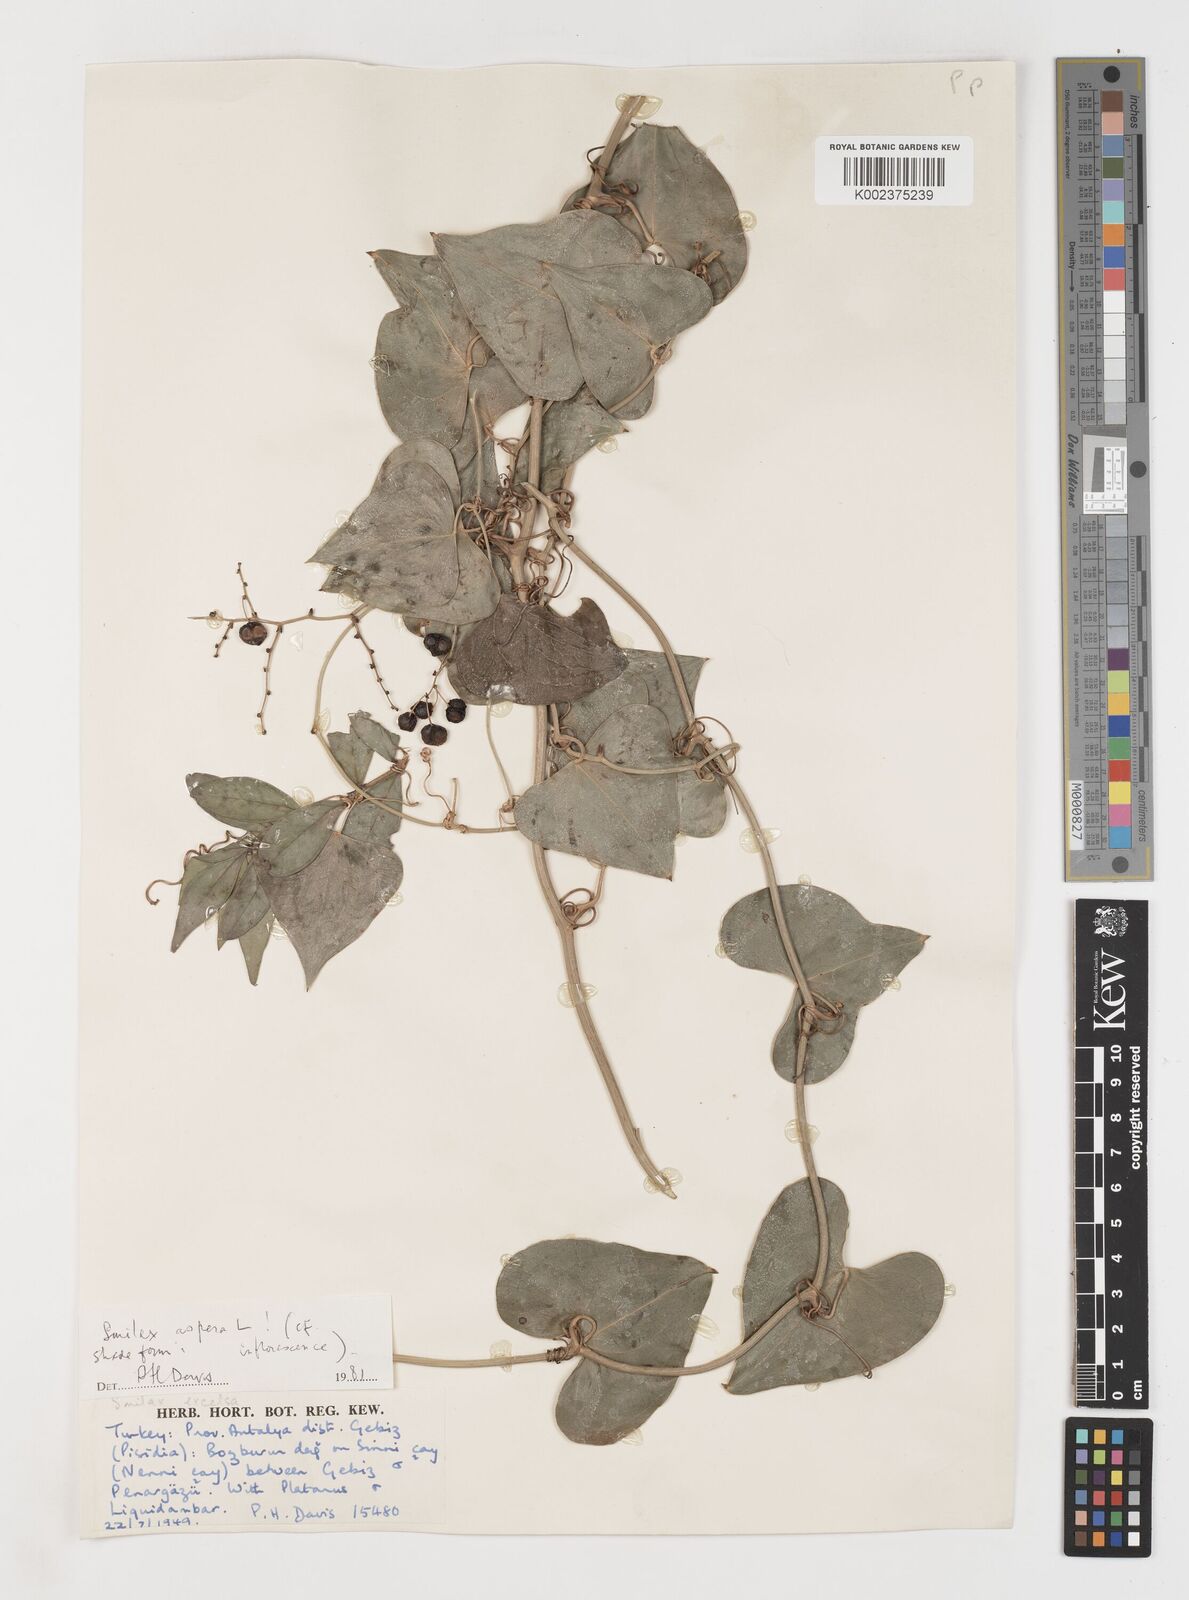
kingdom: Plantae
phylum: Tracheophyta
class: Liliopsida
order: Liliales
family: Smilacaceae
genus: Smilax
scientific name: Smilax aspera
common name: Common smilax
